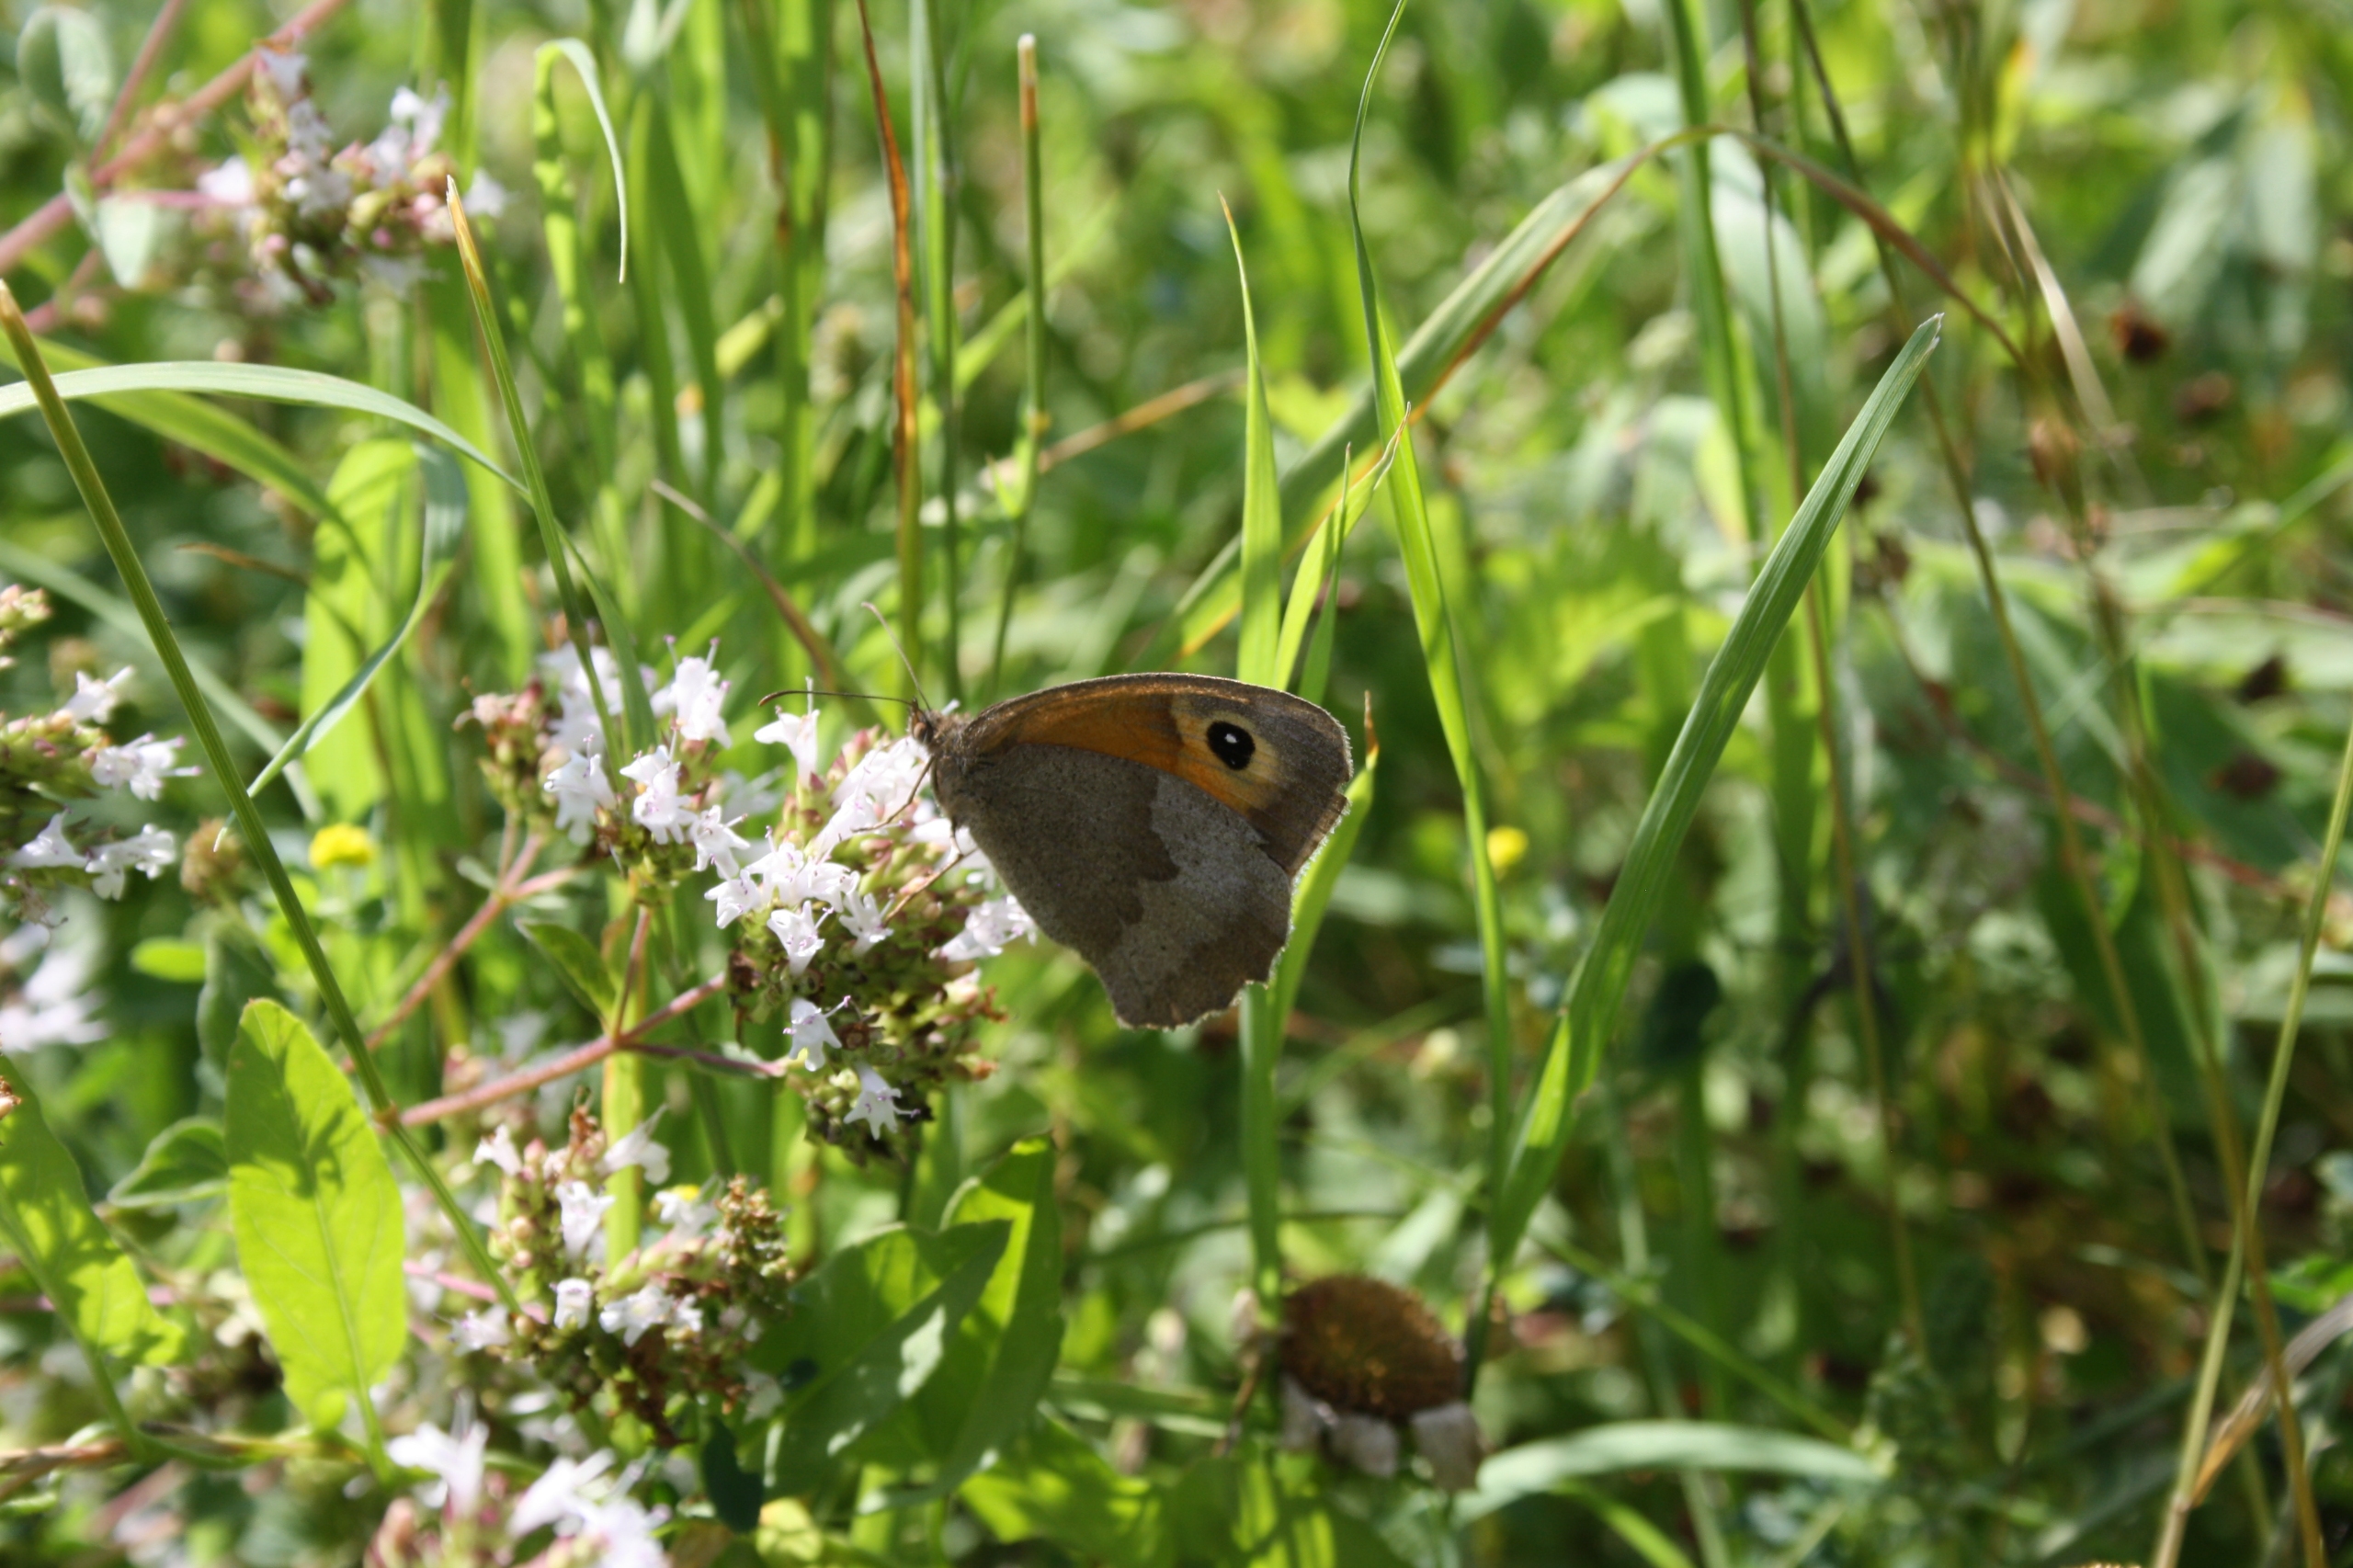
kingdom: Animalia
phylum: Arthropoda
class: Insecta
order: Lepidoptera
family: Nymphalidae
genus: Maniola
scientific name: Maniola jurtina
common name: Græsrandøje
